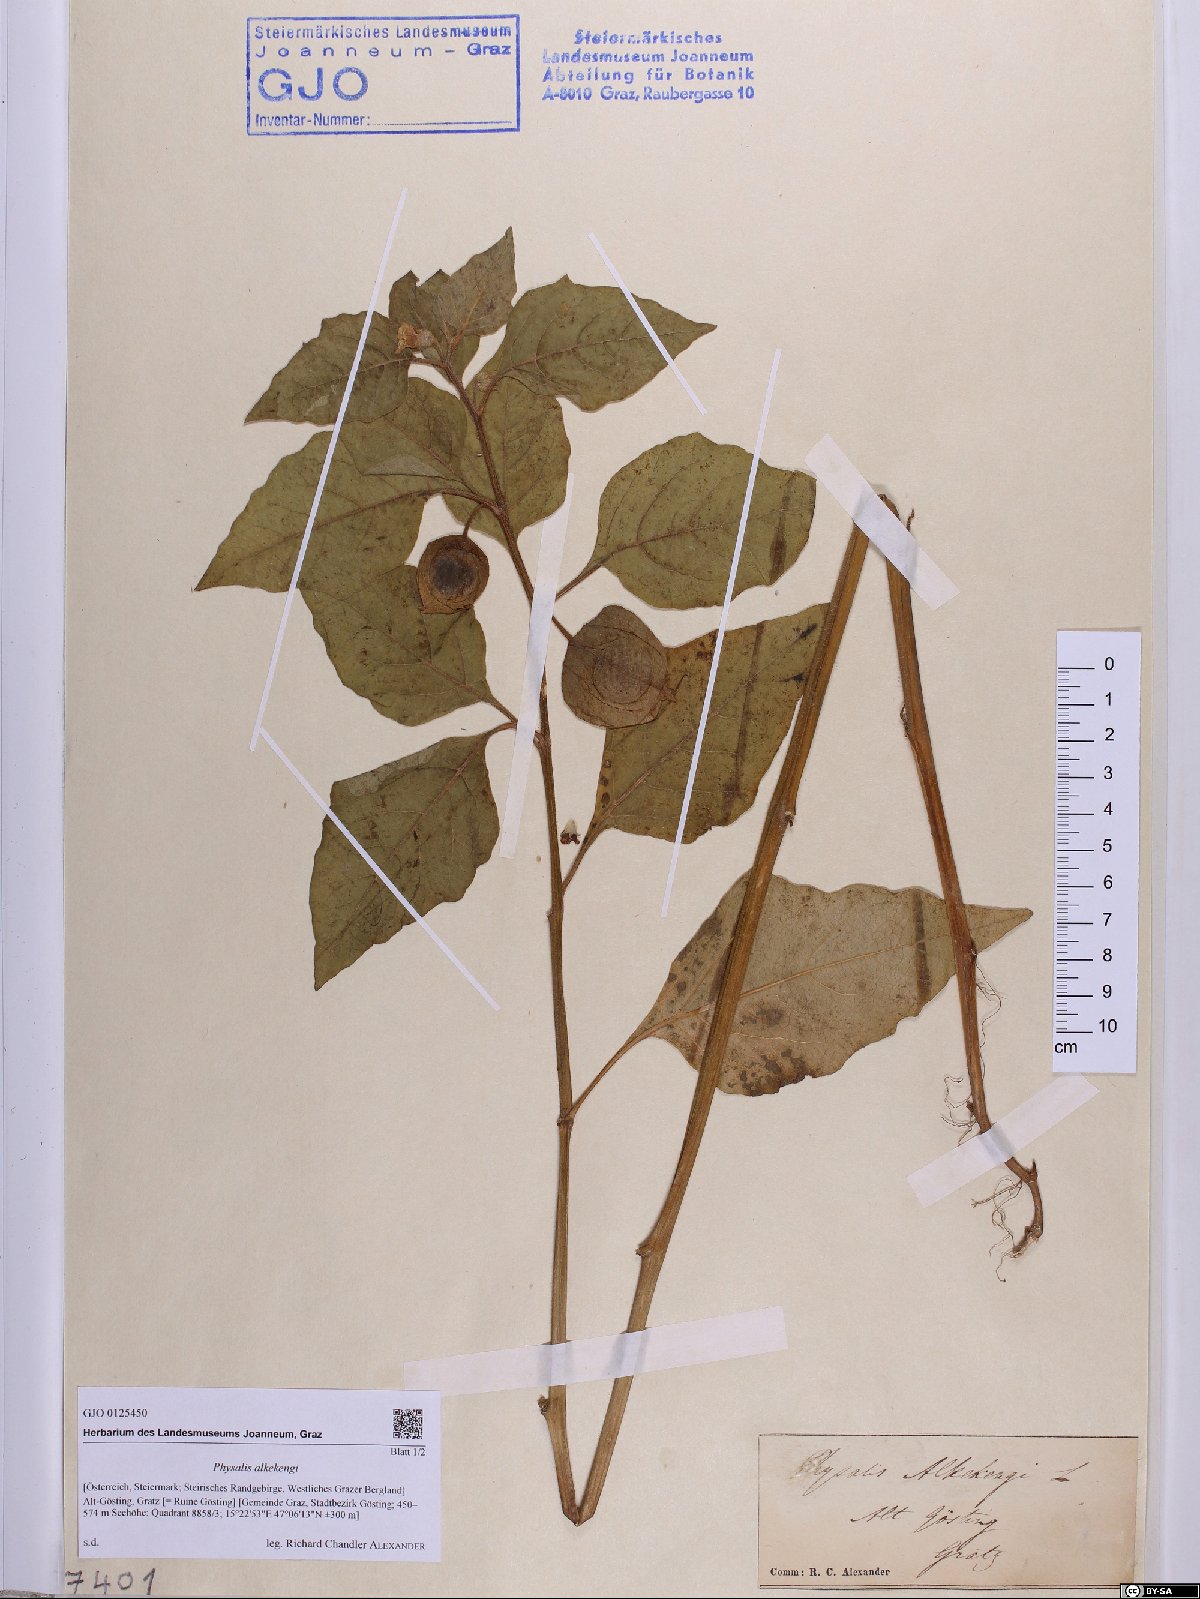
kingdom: Plantae
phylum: Tracheophyta
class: Magnoliopsida
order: Solanales
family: Solanaceae
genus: Alkekengi
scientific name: Alkekengi officinarum
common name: Japanese-lantern
